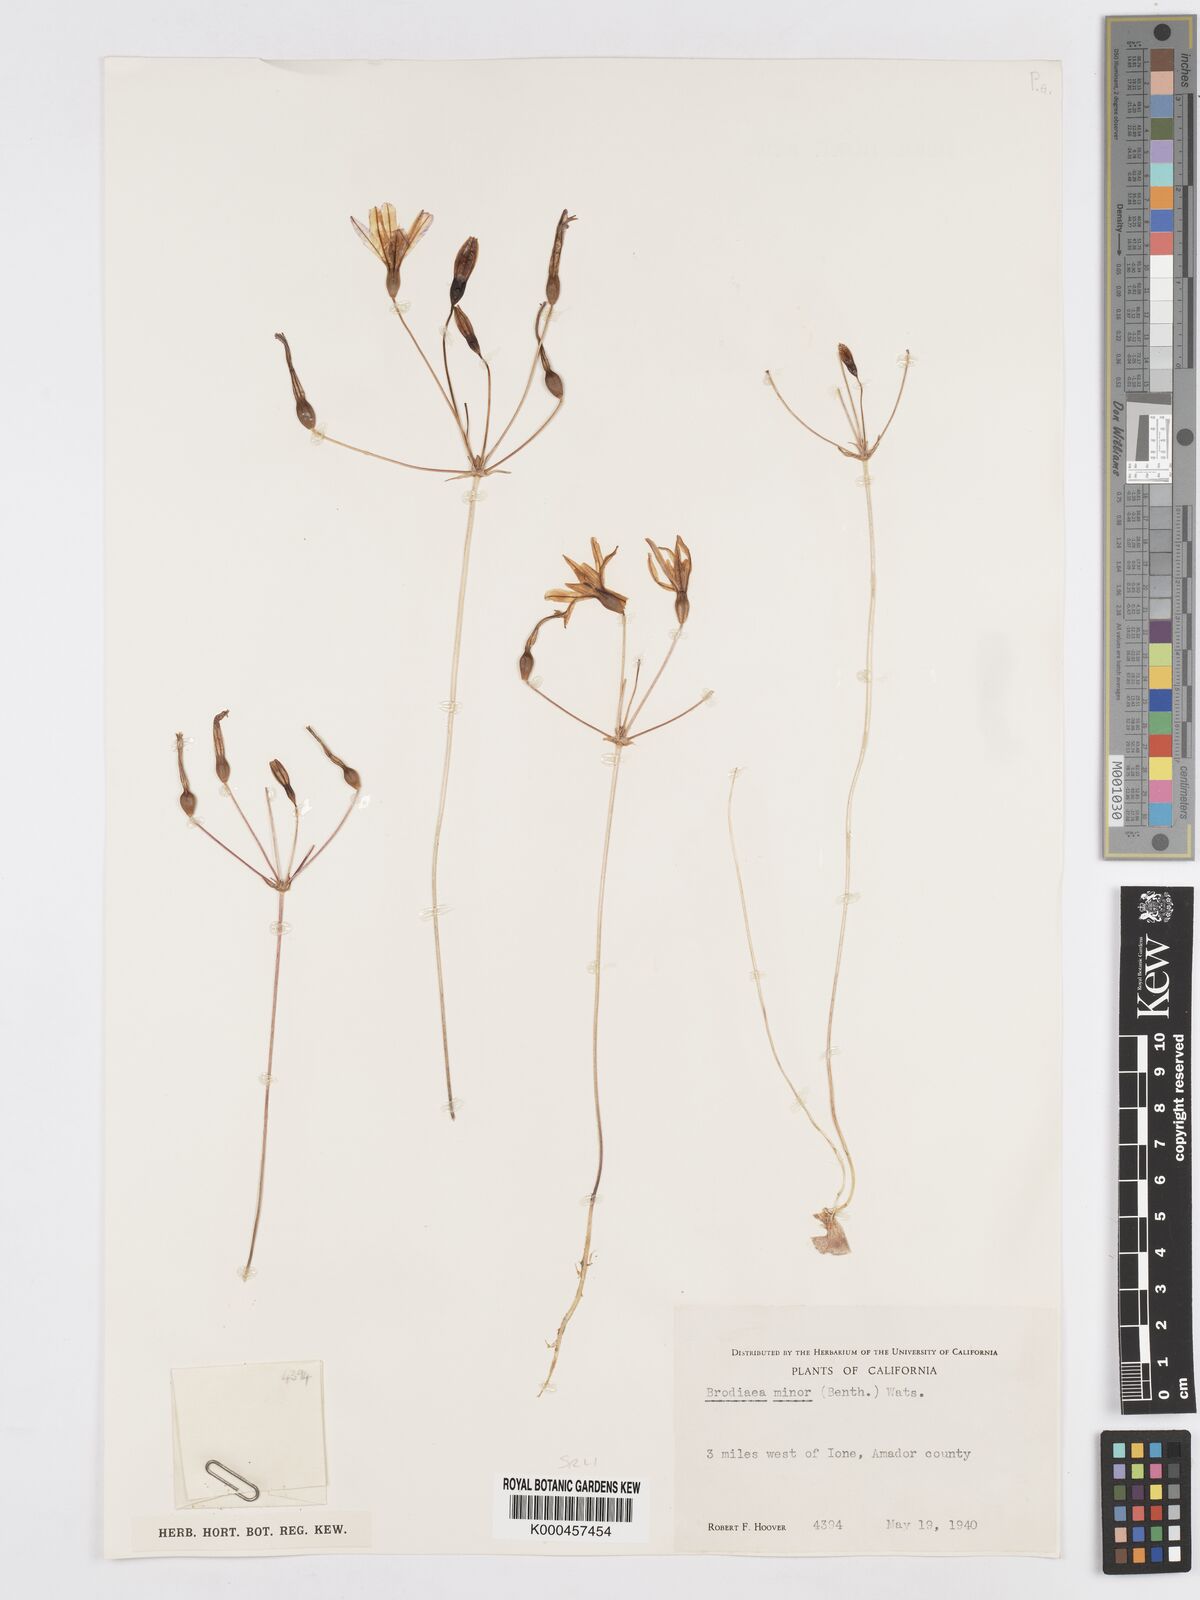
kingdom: Plantae
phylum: Tracheophyta
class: Liliopsida
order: Asparagales
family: Asparagaceae
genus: Brodiaea
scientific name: Brodiaea minor
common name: Dwarf brodiaea
